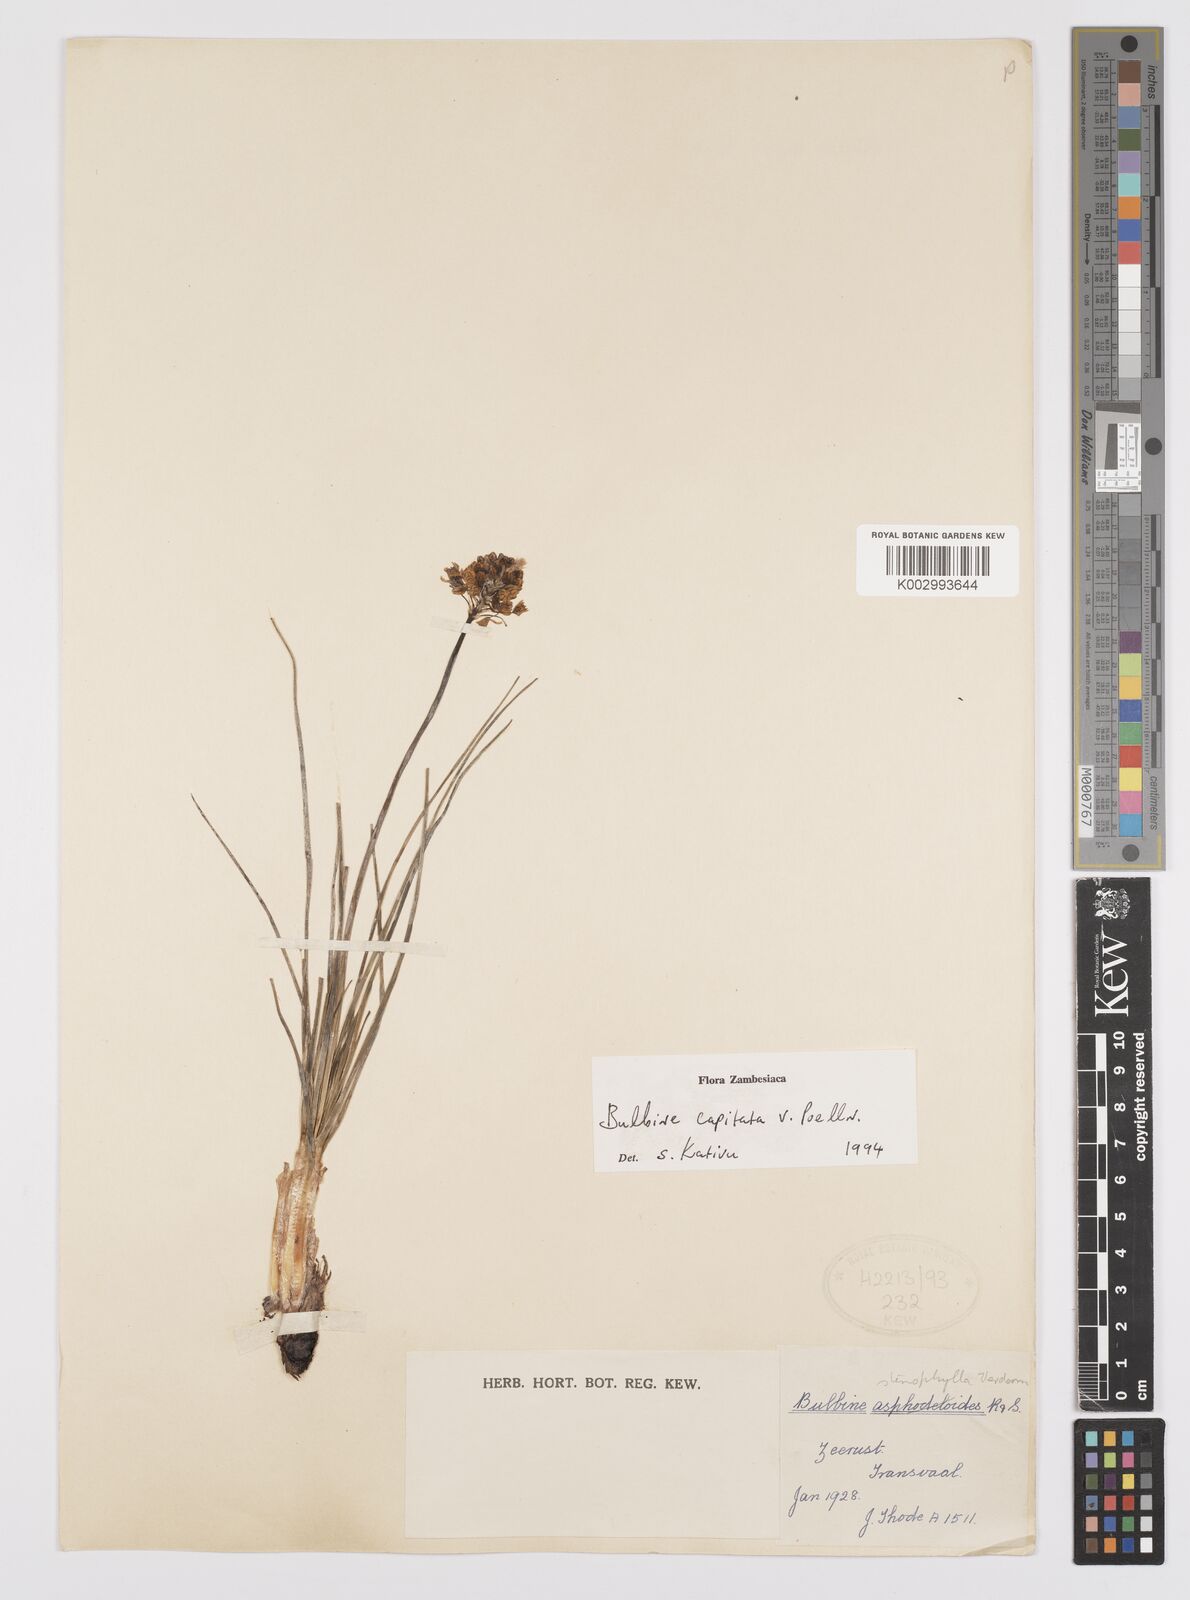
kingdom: Plantae
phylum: Tracheophyta
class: Liliopsida
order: Asparagales
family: Asphodelaceae
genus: Bulbine
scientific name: Bulbine capitata
